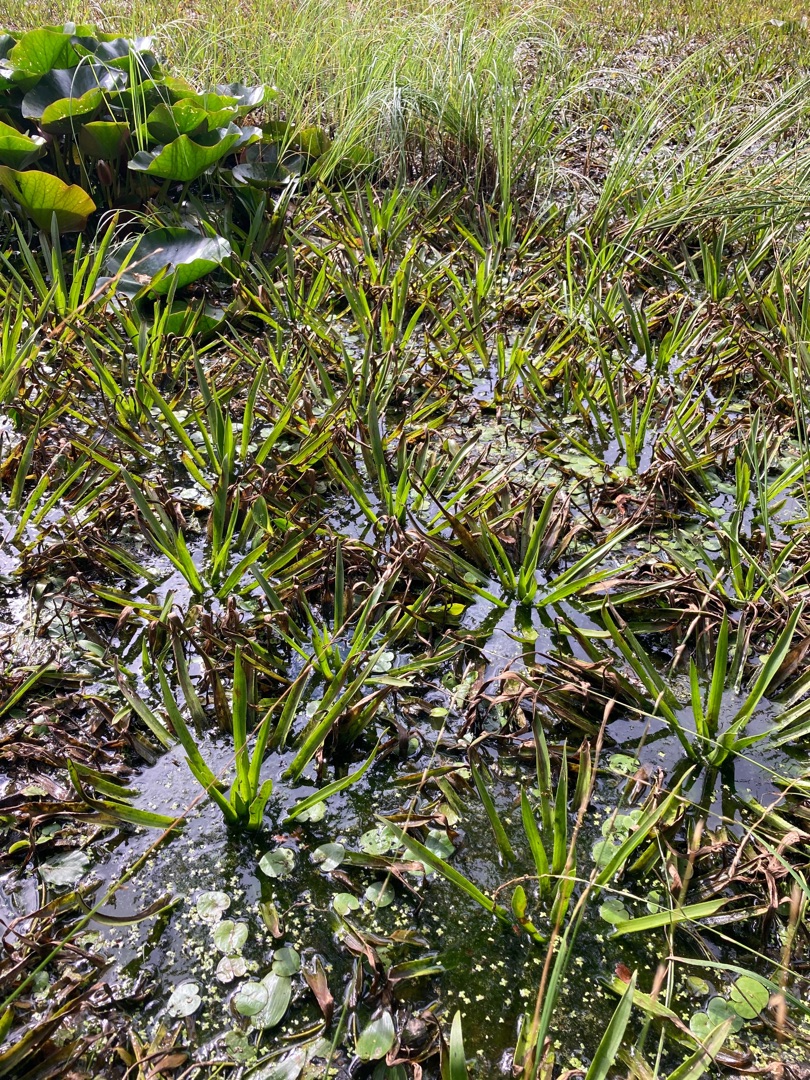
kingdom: Plantae
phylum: Tracheophyta
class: Liliopsida
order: Alismatales
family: Hydrocharitaceae
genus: Stratiotes
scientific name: Stratiotes aloides
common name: Krebseklo
